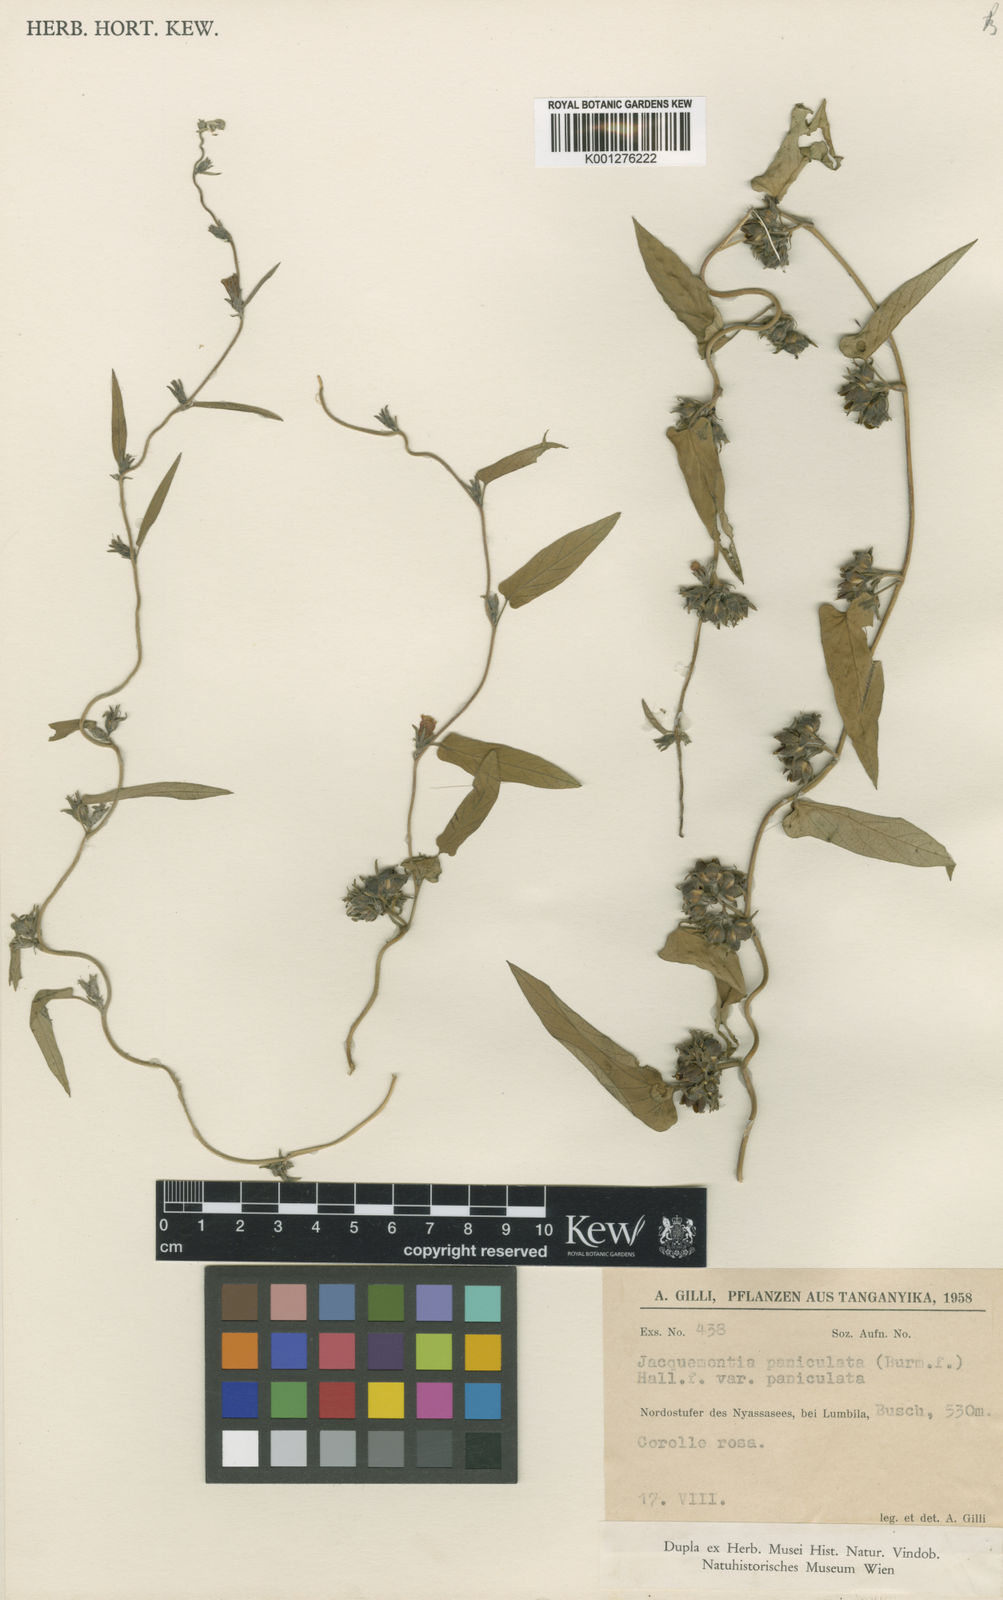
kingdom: Plantae
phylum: Tracheophyta
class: Magnoliopsida
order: Solanales
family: Convolvulaceae
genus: Ipomoea
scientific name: Ipomoea eriocarpa
